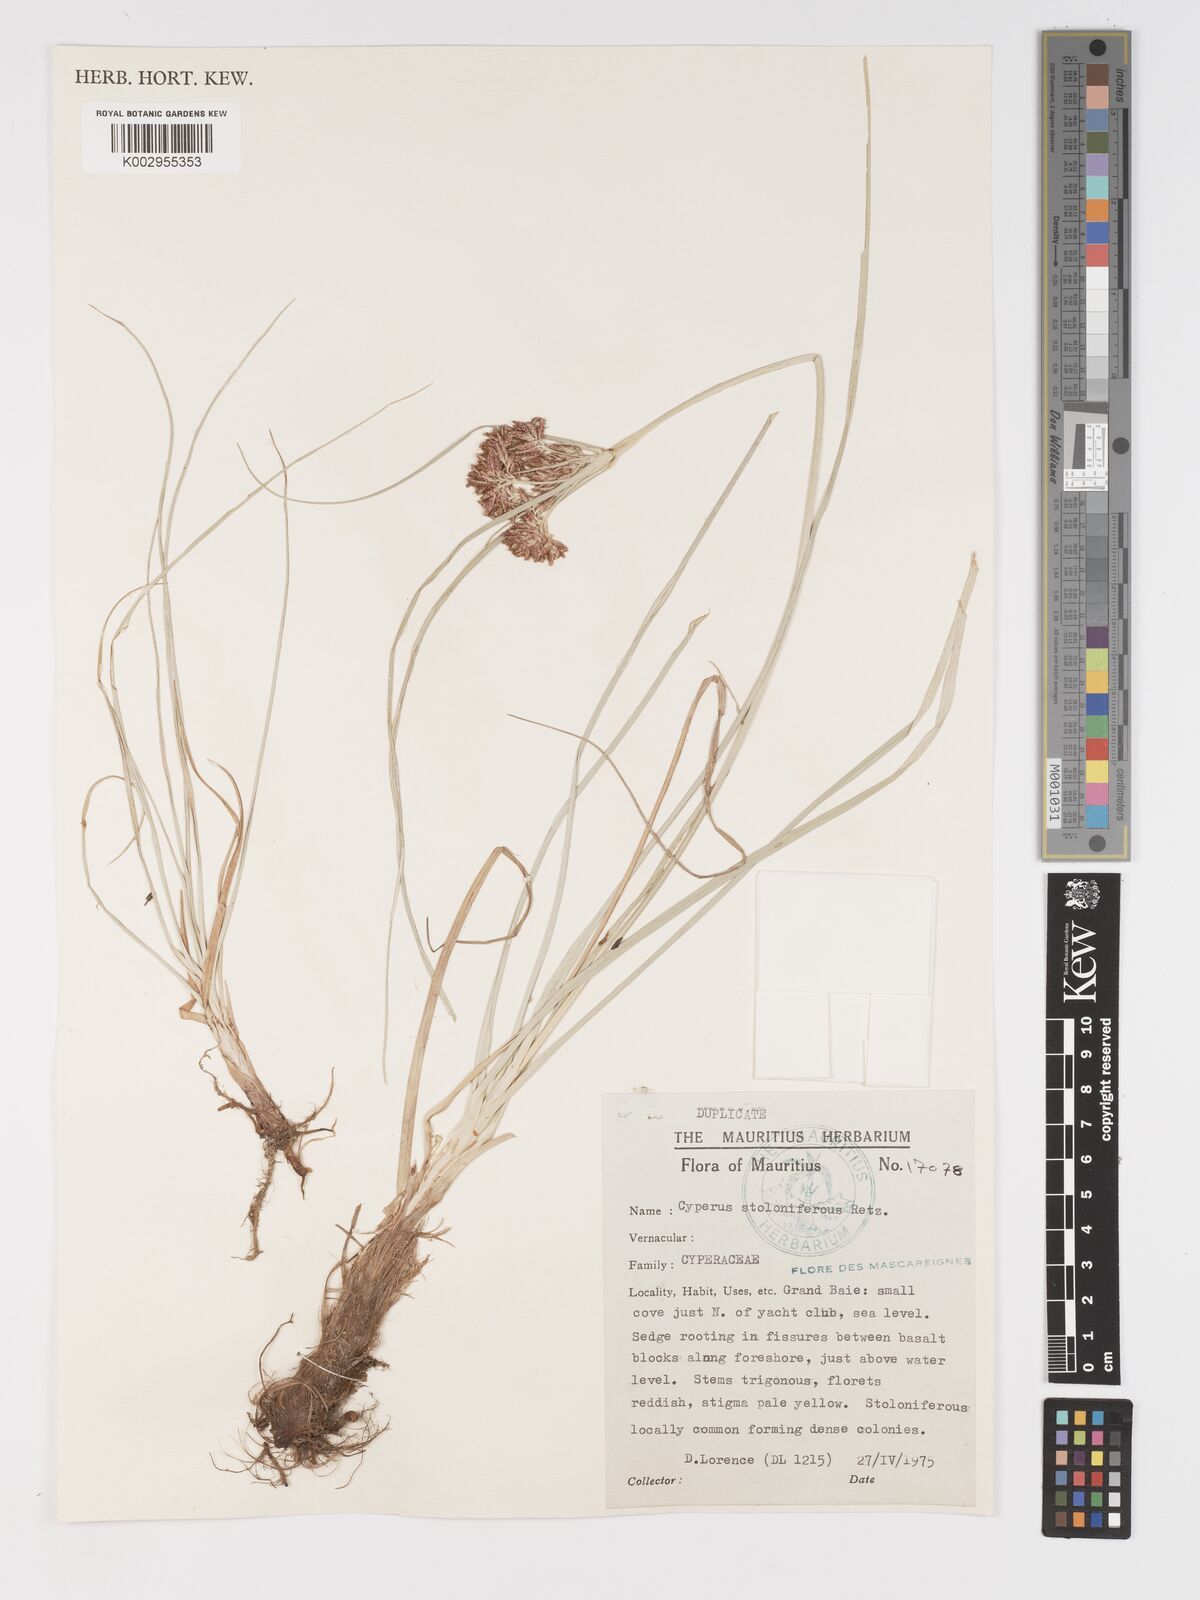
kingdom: Plantae
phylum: Tracheophyta
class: Liliopsida
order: Poales
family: Cyperaceae
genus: Cyperus
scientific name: Cyperus bulbosus
